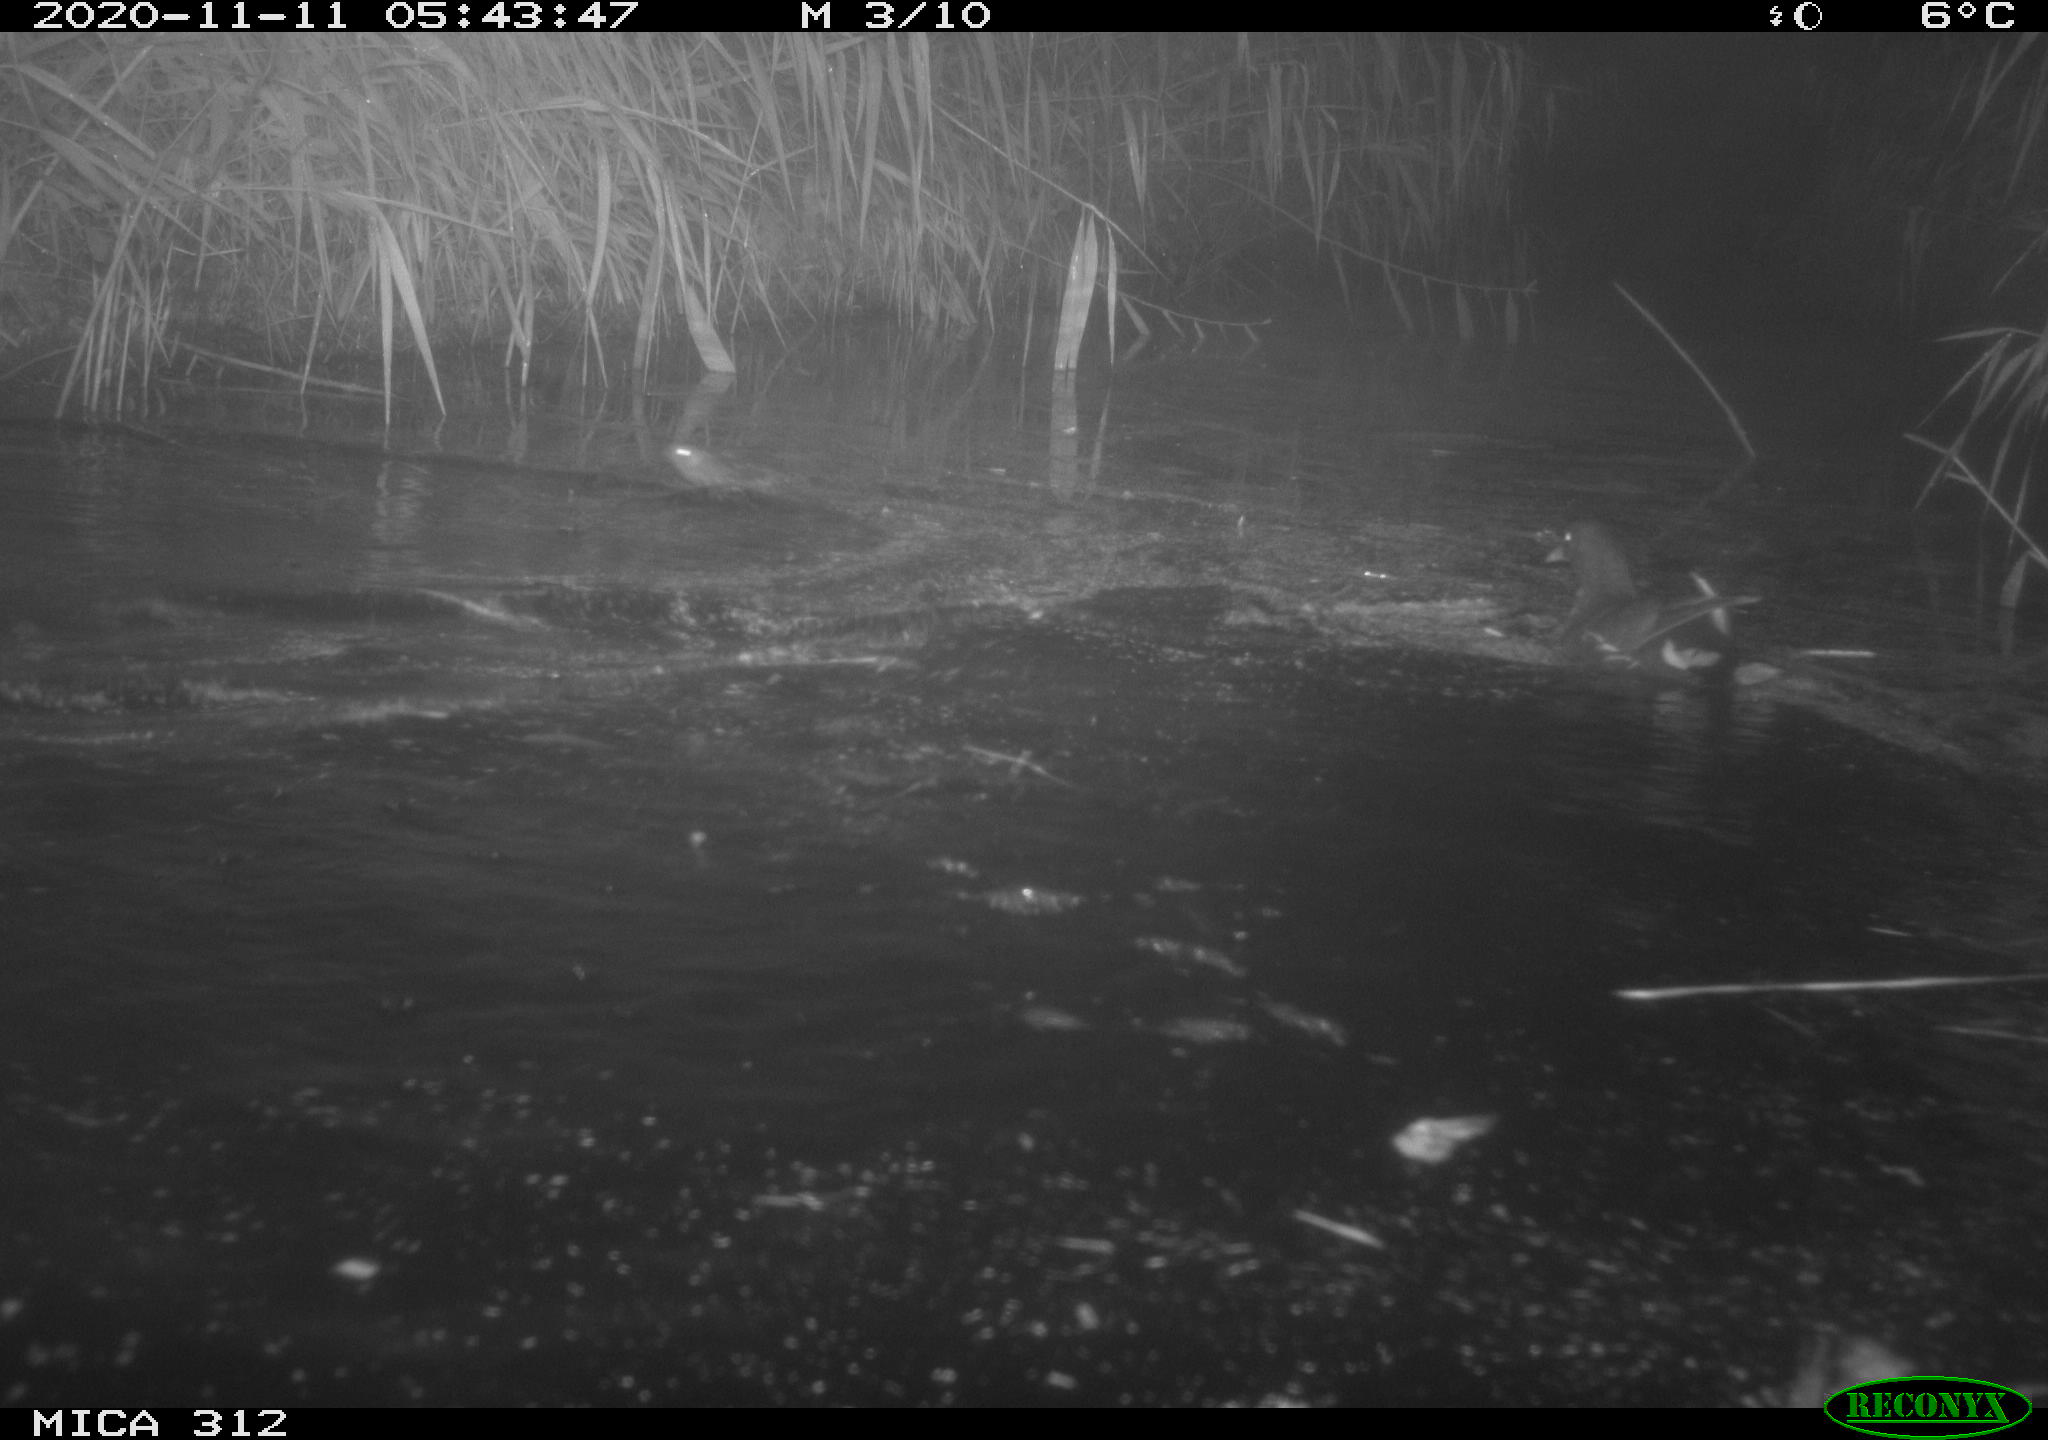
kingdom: Animalia
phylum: Chordata
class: Mammalia
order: Rodentia
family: Muridae
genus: Rattus
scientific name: Rattus norvegicus
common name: Brown rat
